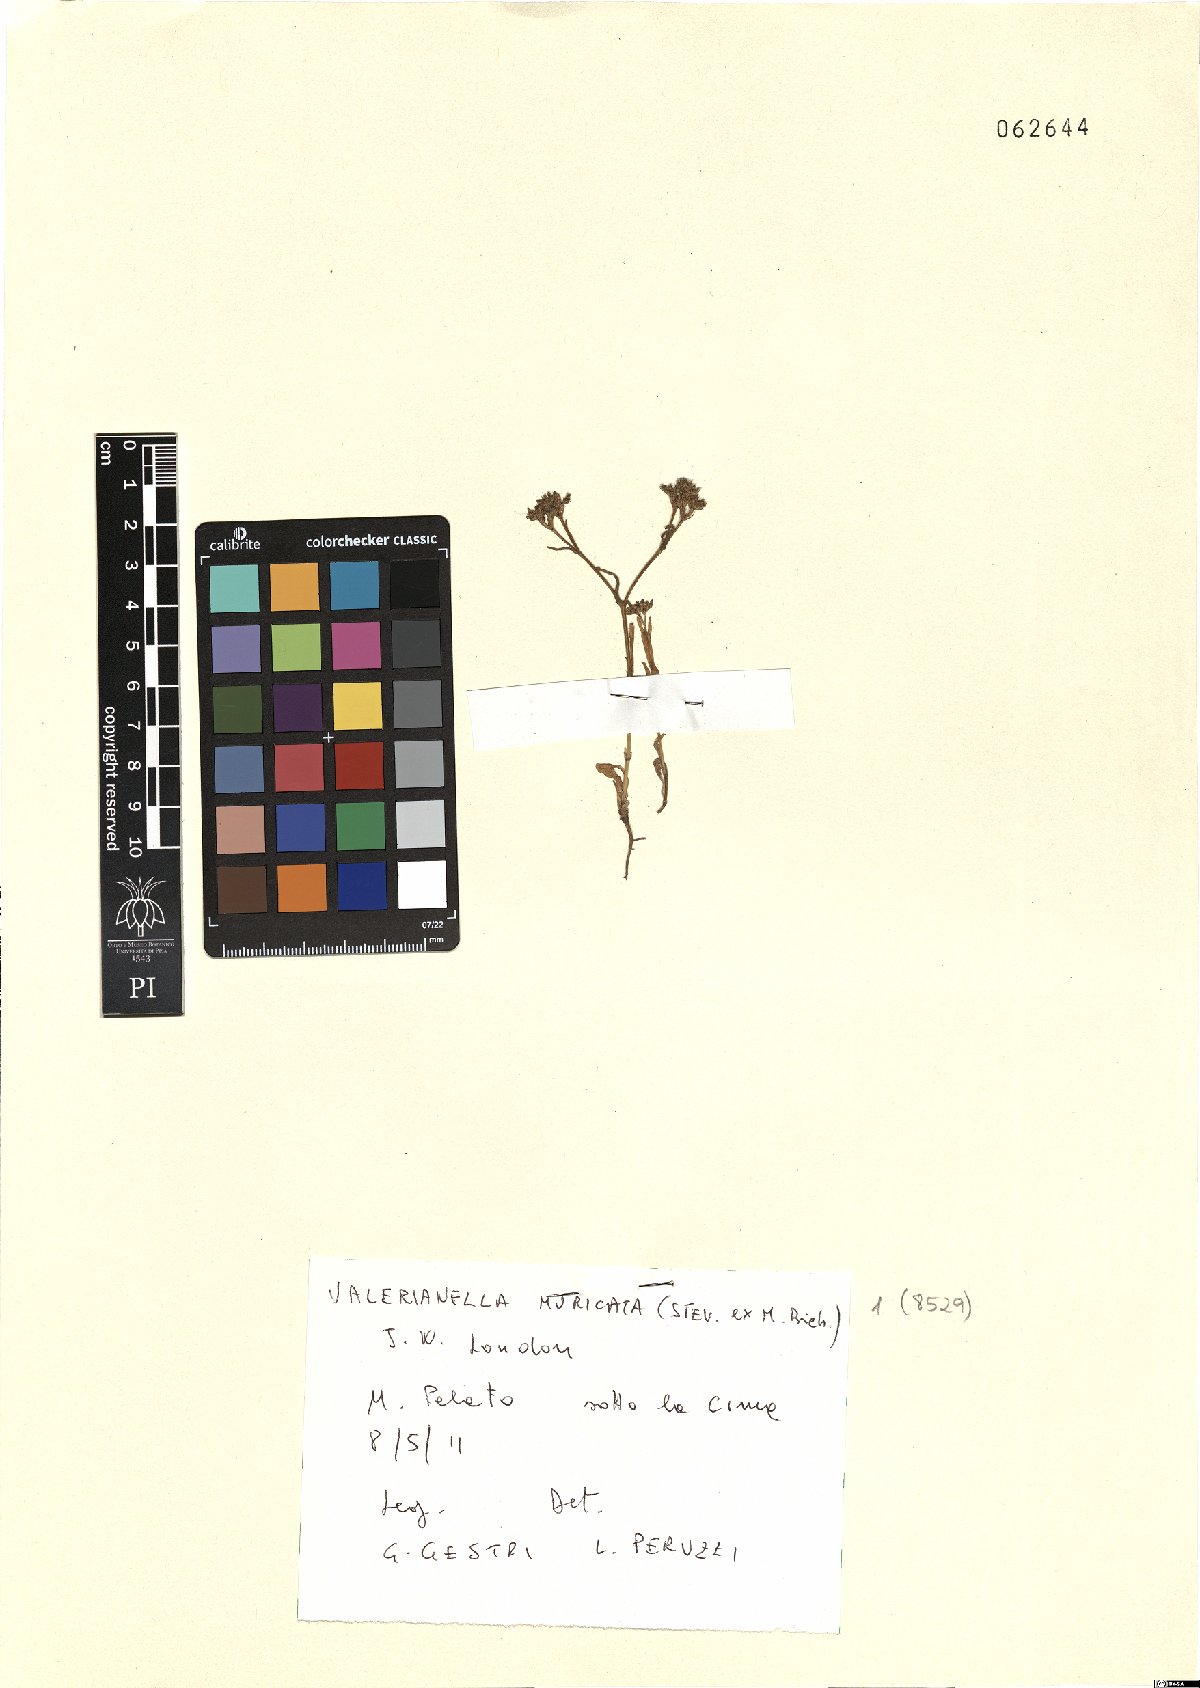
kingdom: Plantae
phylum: Tracheophyta
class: Magnoliopsida
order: Dipsacales
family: Caprifoliaceae
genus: Valerianella
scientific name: Valerianella eriocarpa
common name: Hairy-fruited cornsalad
